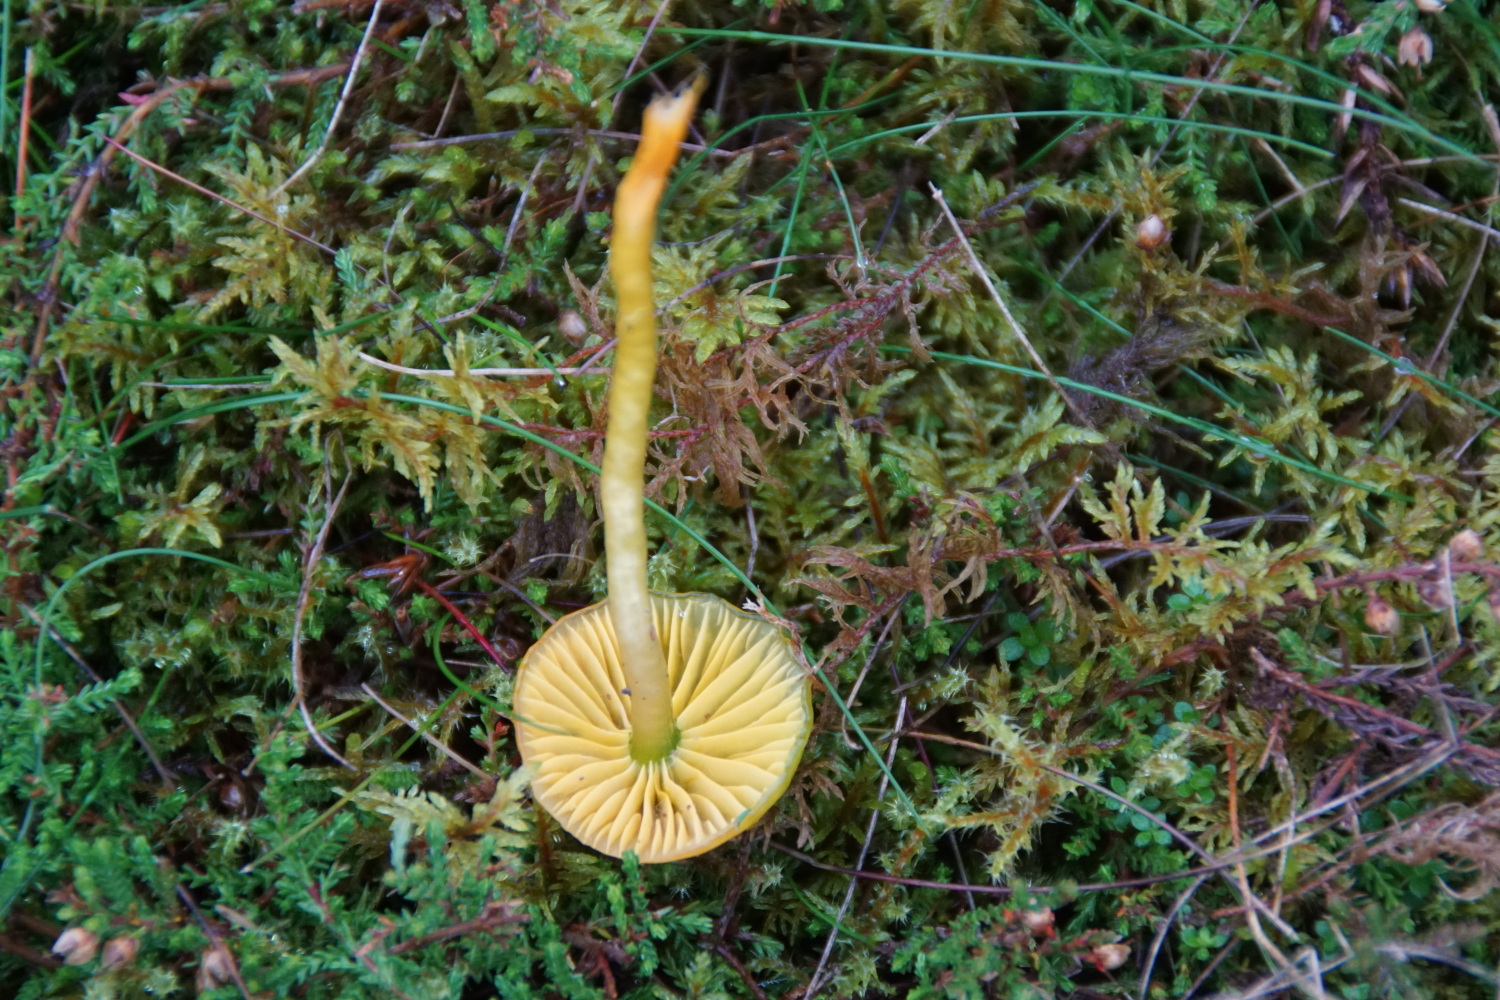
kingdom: Fungi
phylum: Basidiomycota
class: Agaricomycetes
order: Agaricales
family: Hygrophoraceae
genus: Gliophorus
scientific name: Gliophorus psittacinus
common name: papegøje-vokshat
